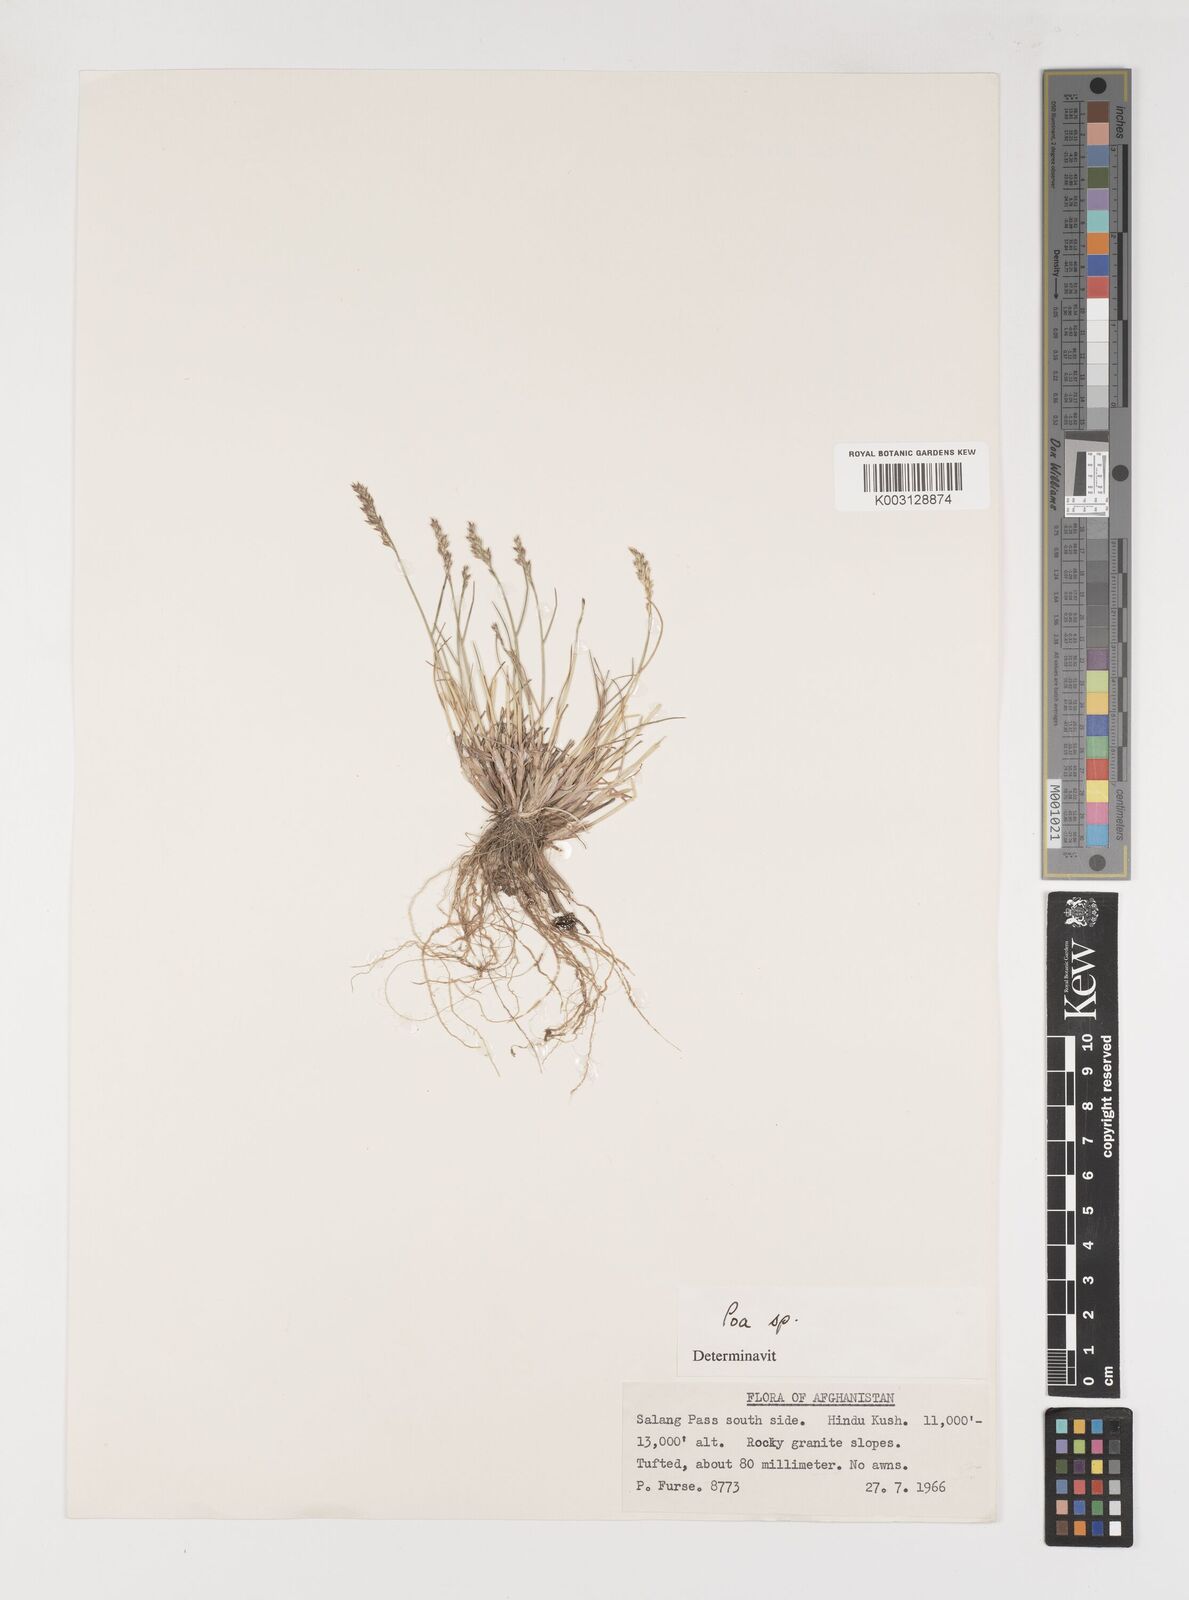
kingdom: Plantae
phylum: Tracheophyta
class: Liliopsida
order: Poales
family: Poaceae
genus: Poa
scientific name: Poa
